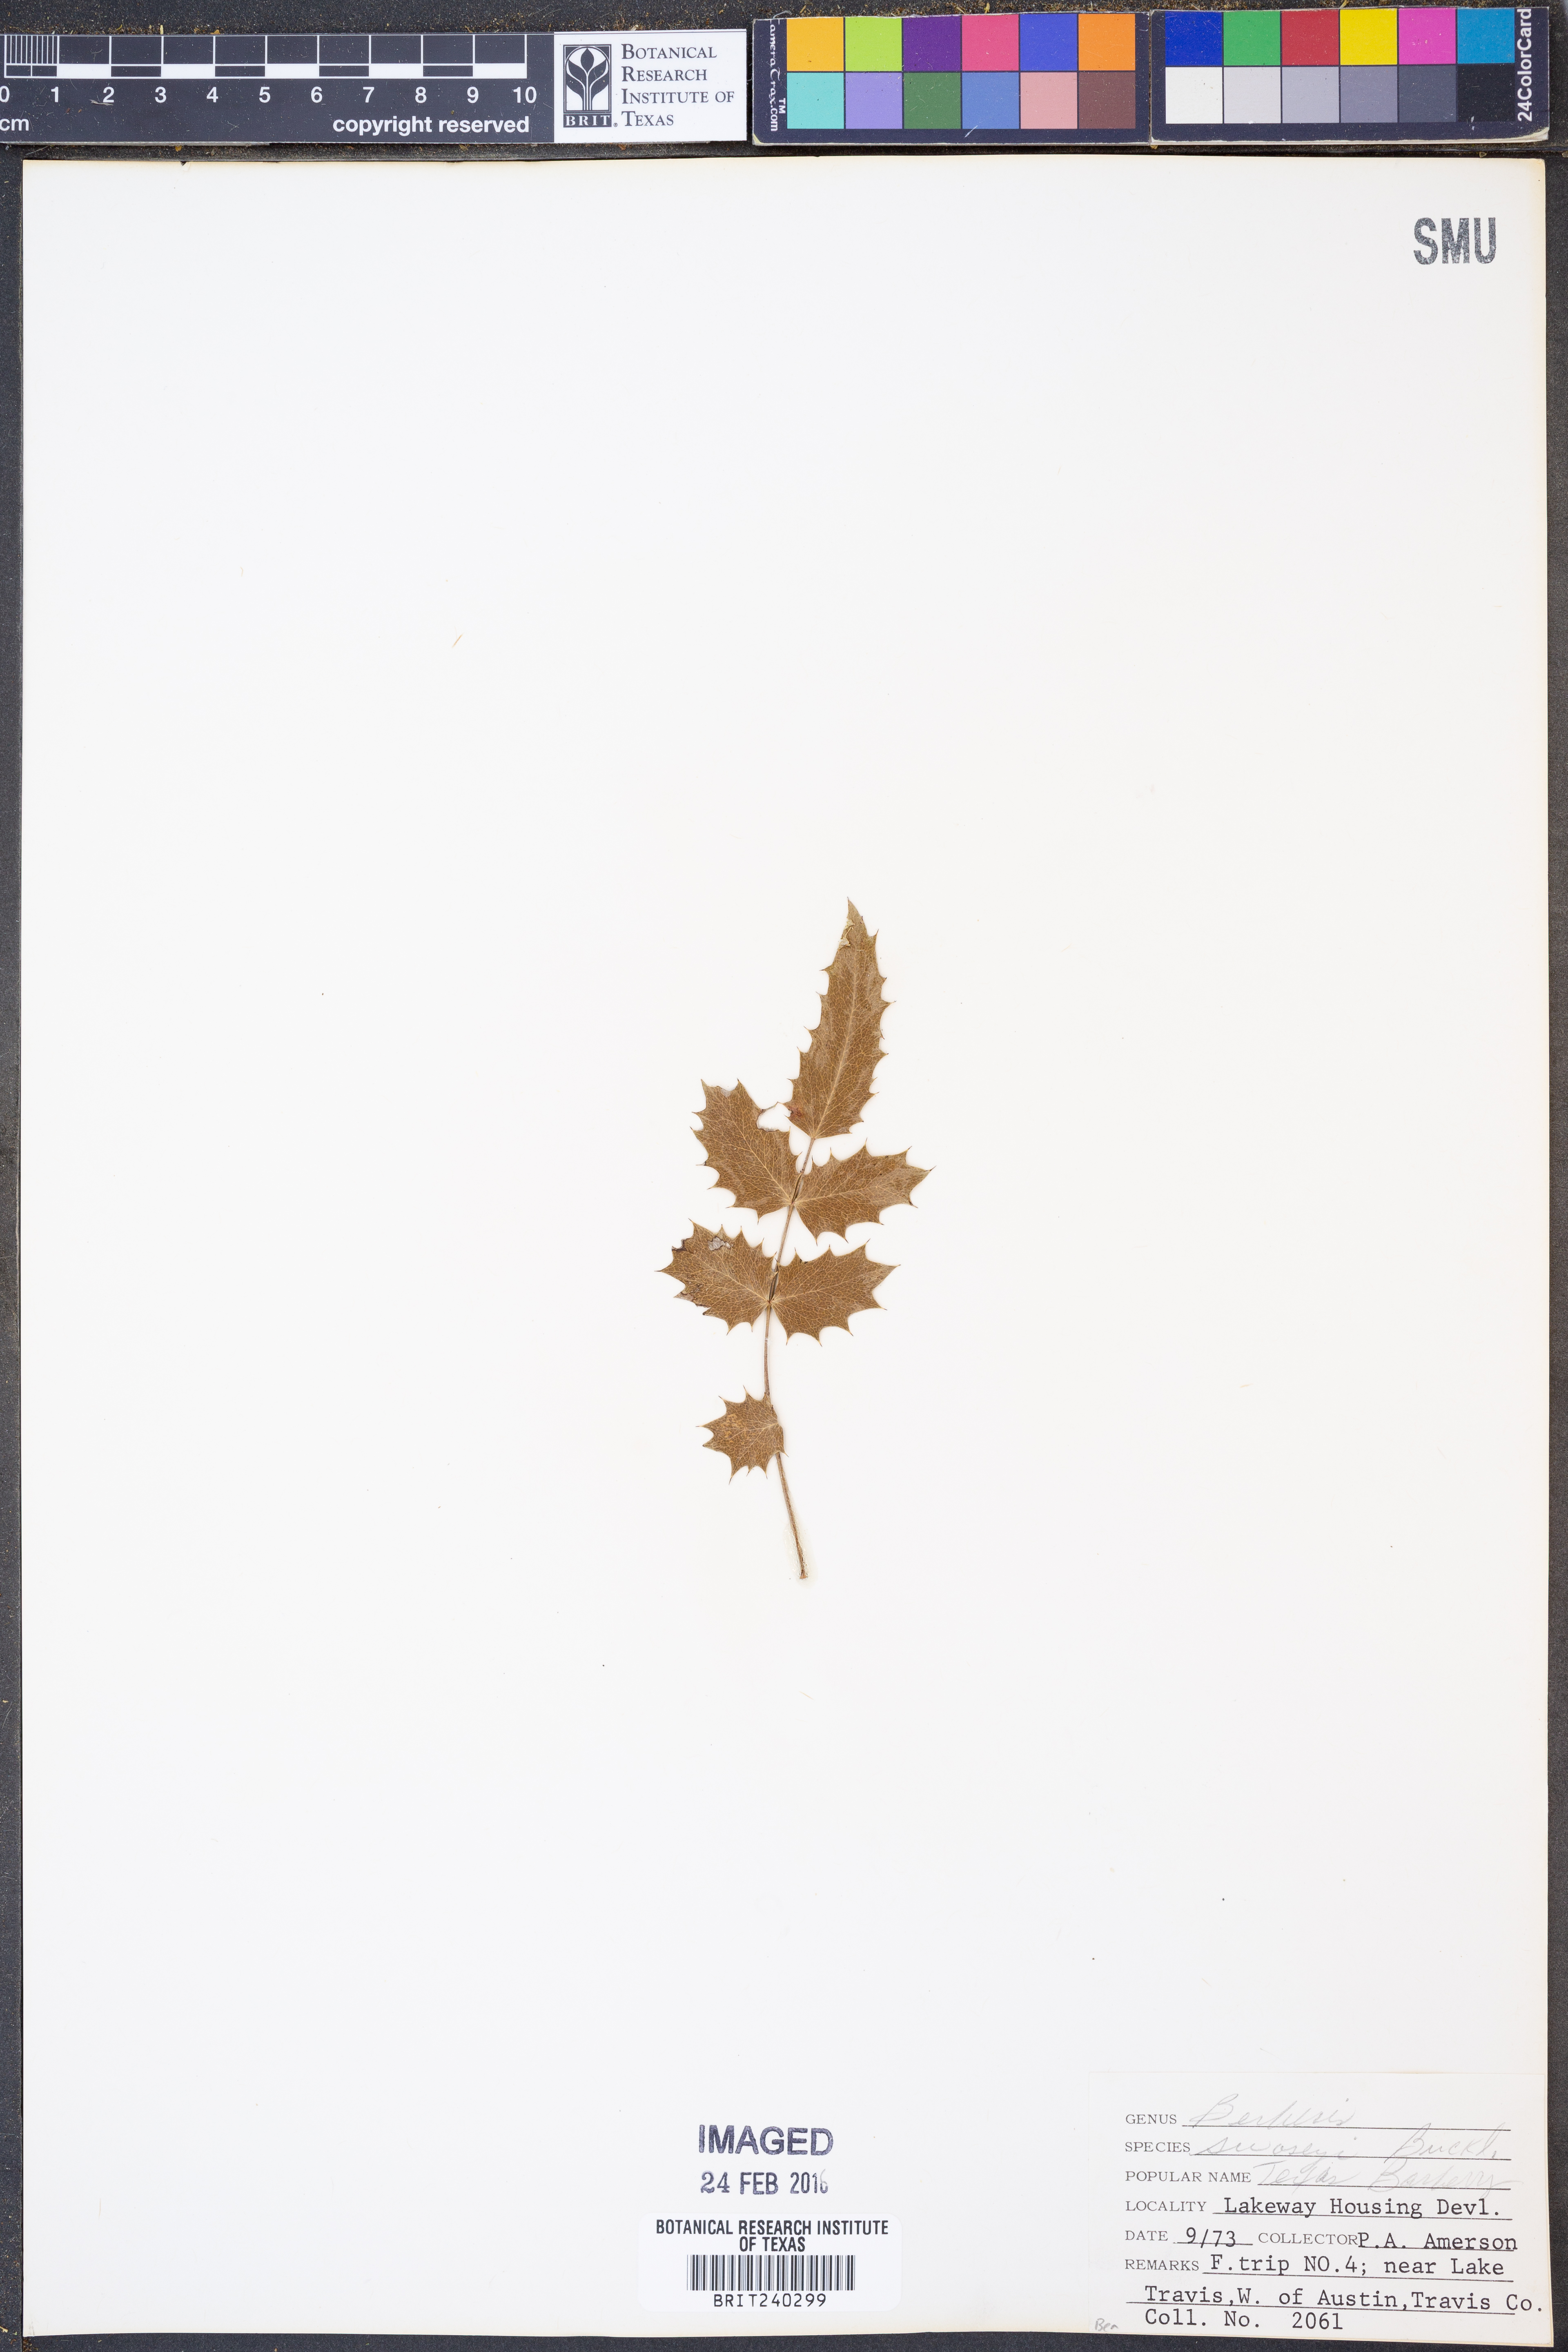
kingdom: Plantae
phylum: Tracheophyta
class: Magnoliopsida
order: Ranunculales
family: Berberidaceae
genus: Berberis
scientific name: Berberis swaseyi
